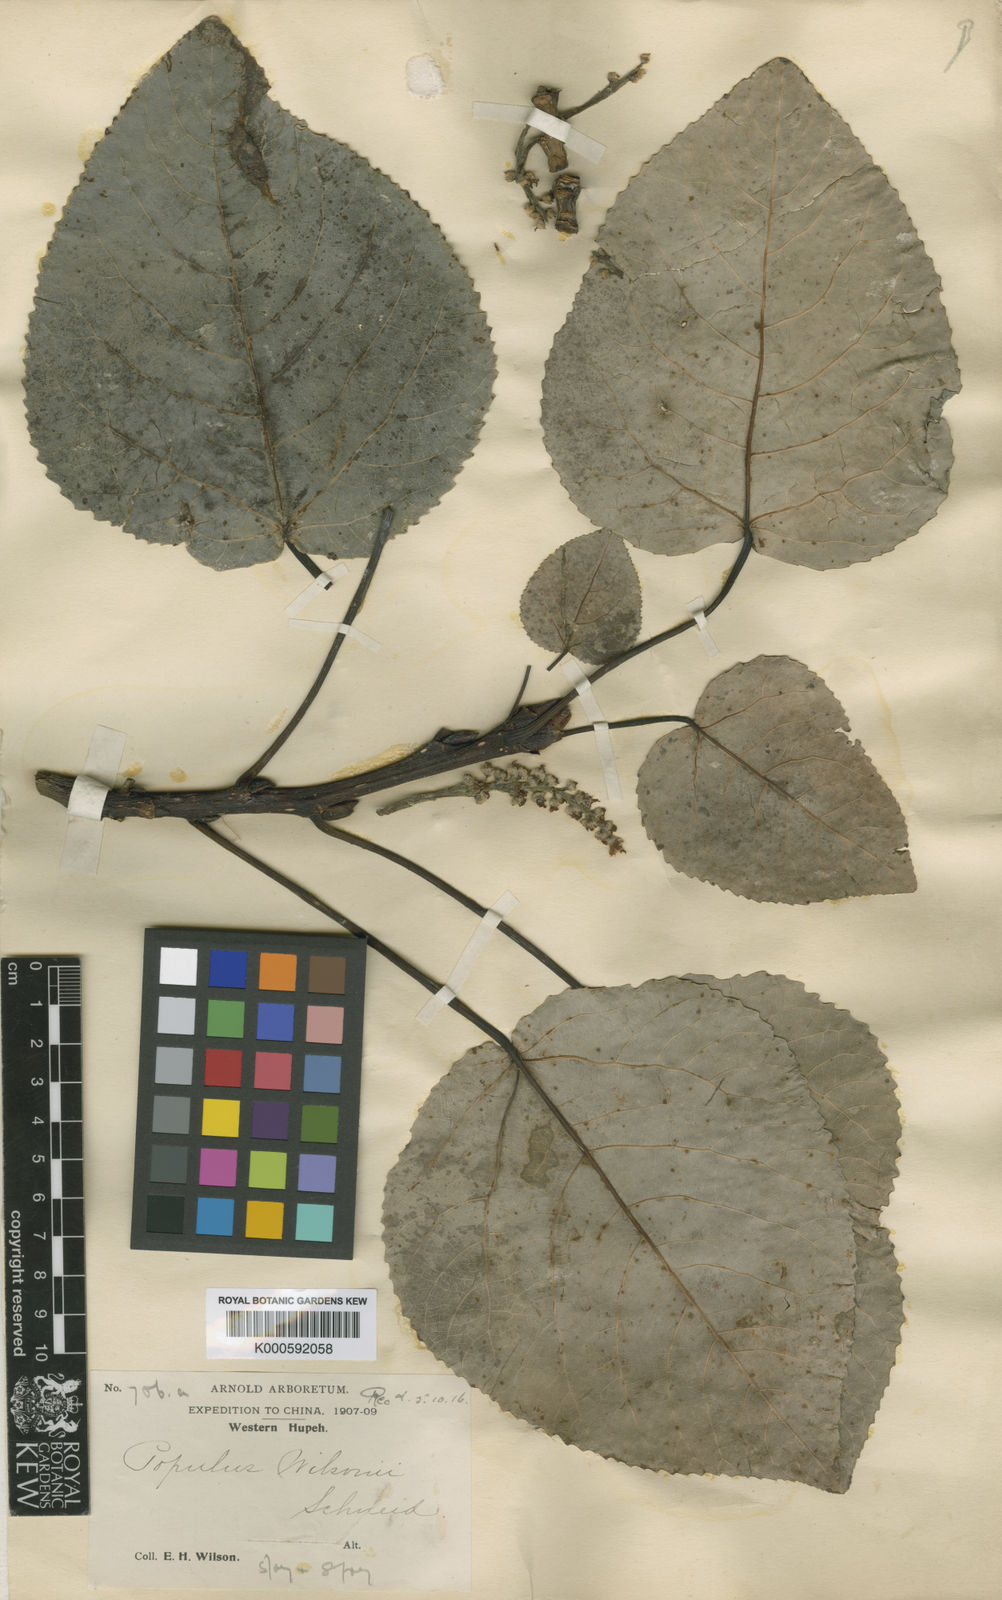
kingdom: Plantae
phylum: Tracheophyta
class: Magnoliopsida
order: Malpighiales
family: Salicaceae
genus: Populus
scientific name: Populus wilsonii
